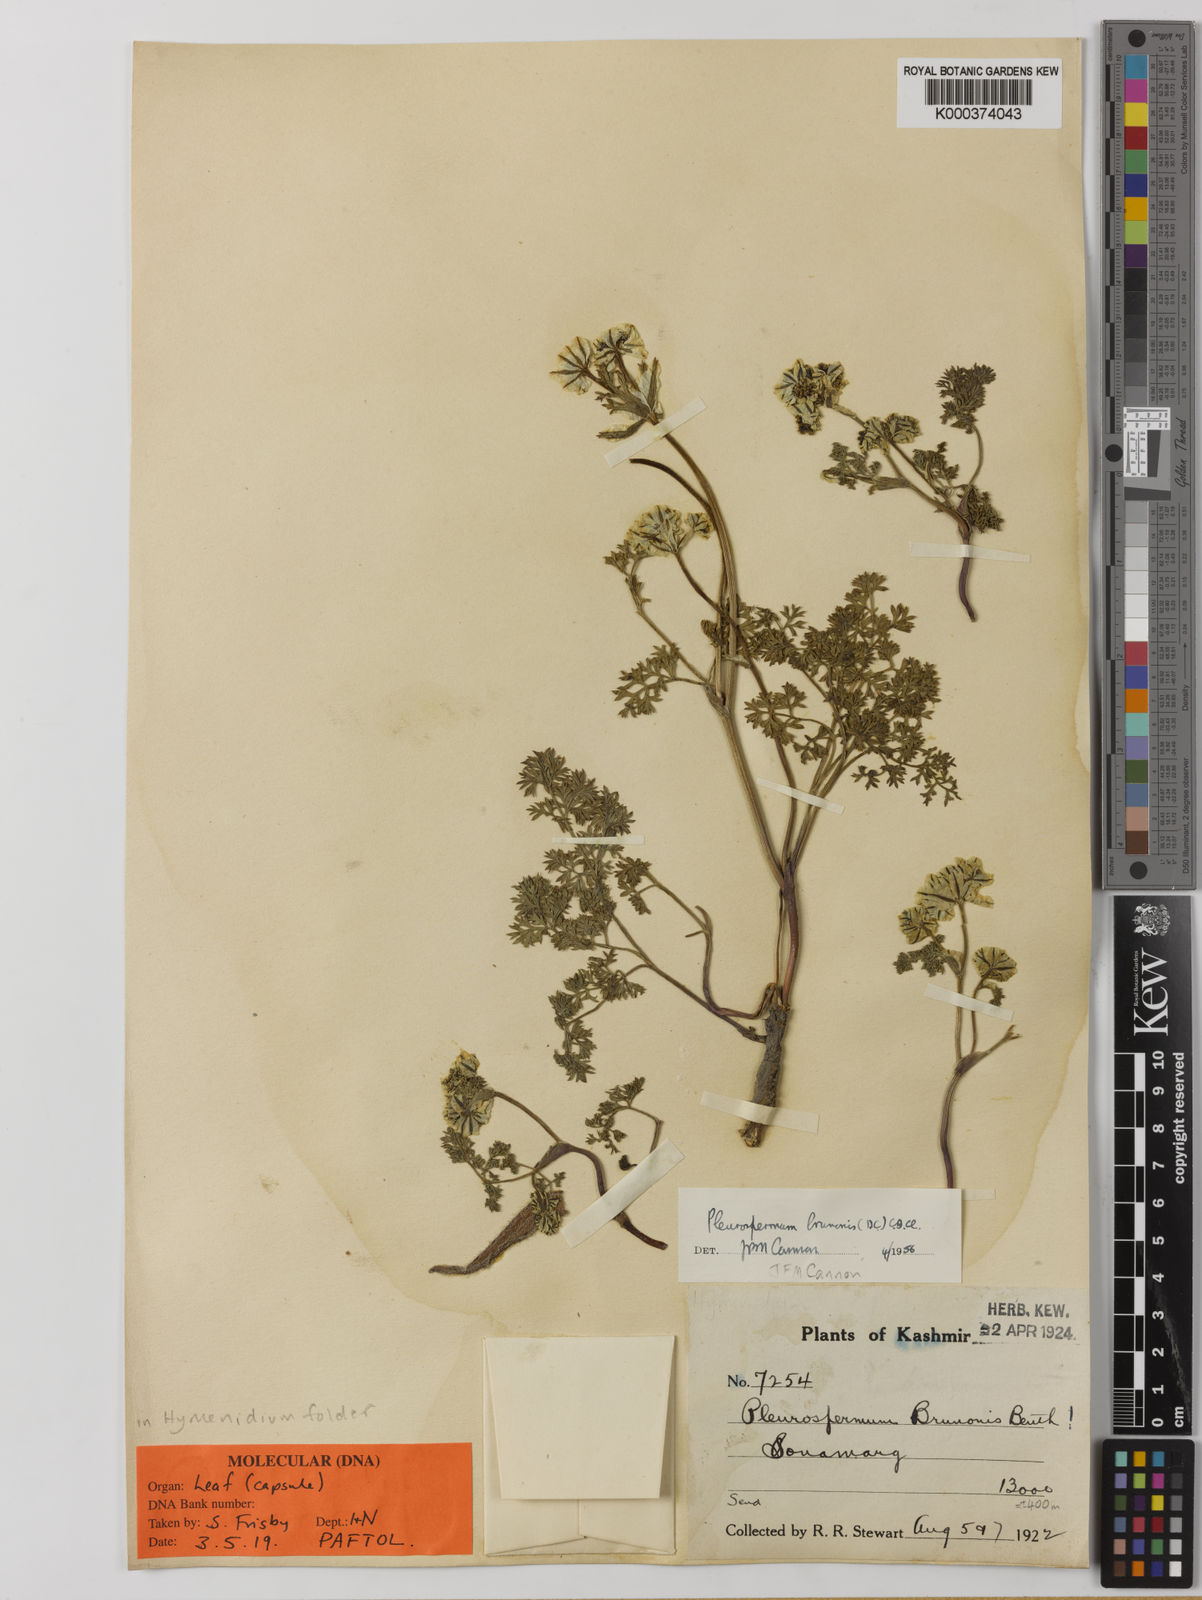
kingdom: Plantae
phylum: Tracheophyta
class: Magnoliopsida
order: Apiales
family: Apiaceae
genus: Hymenidium
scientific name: Hymenidium brunonis
